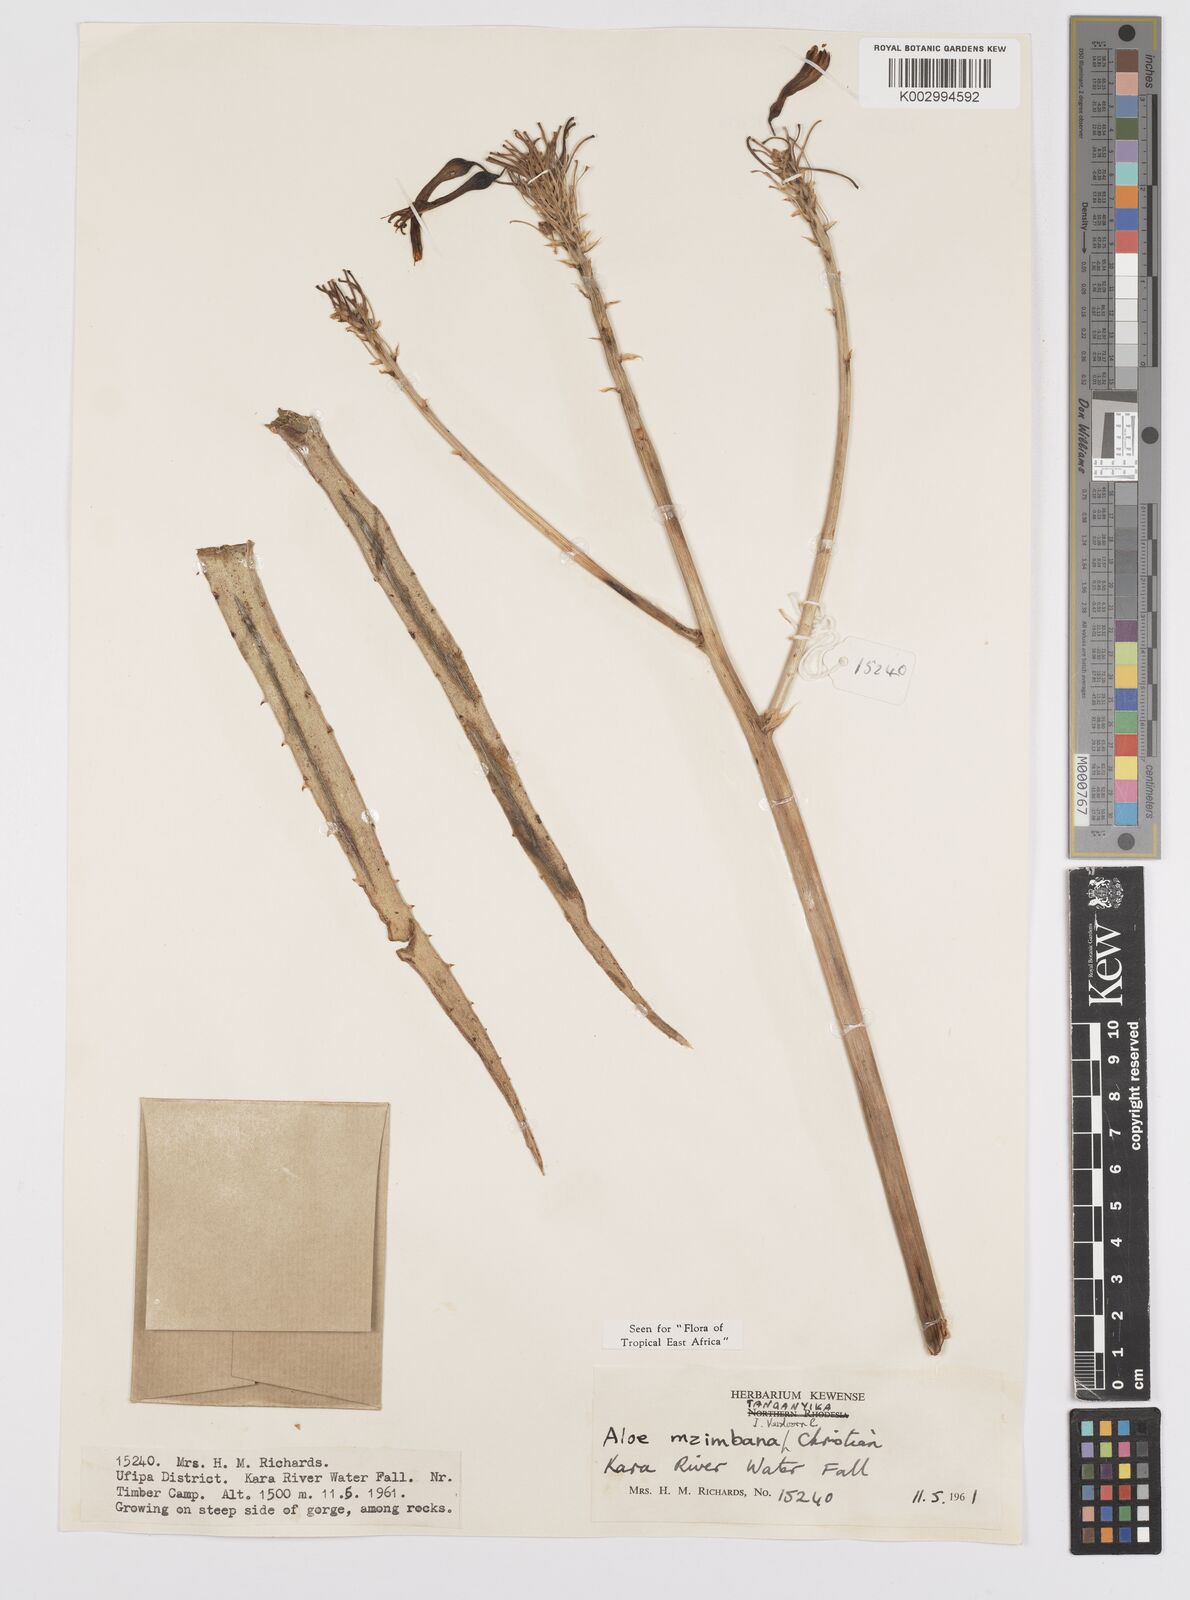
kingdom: Plantae
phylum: Tracheophyta
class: Liliopsida
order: Asparagales
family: Asphodelaceae
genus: Aloe
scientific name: Aloe mzimbana
